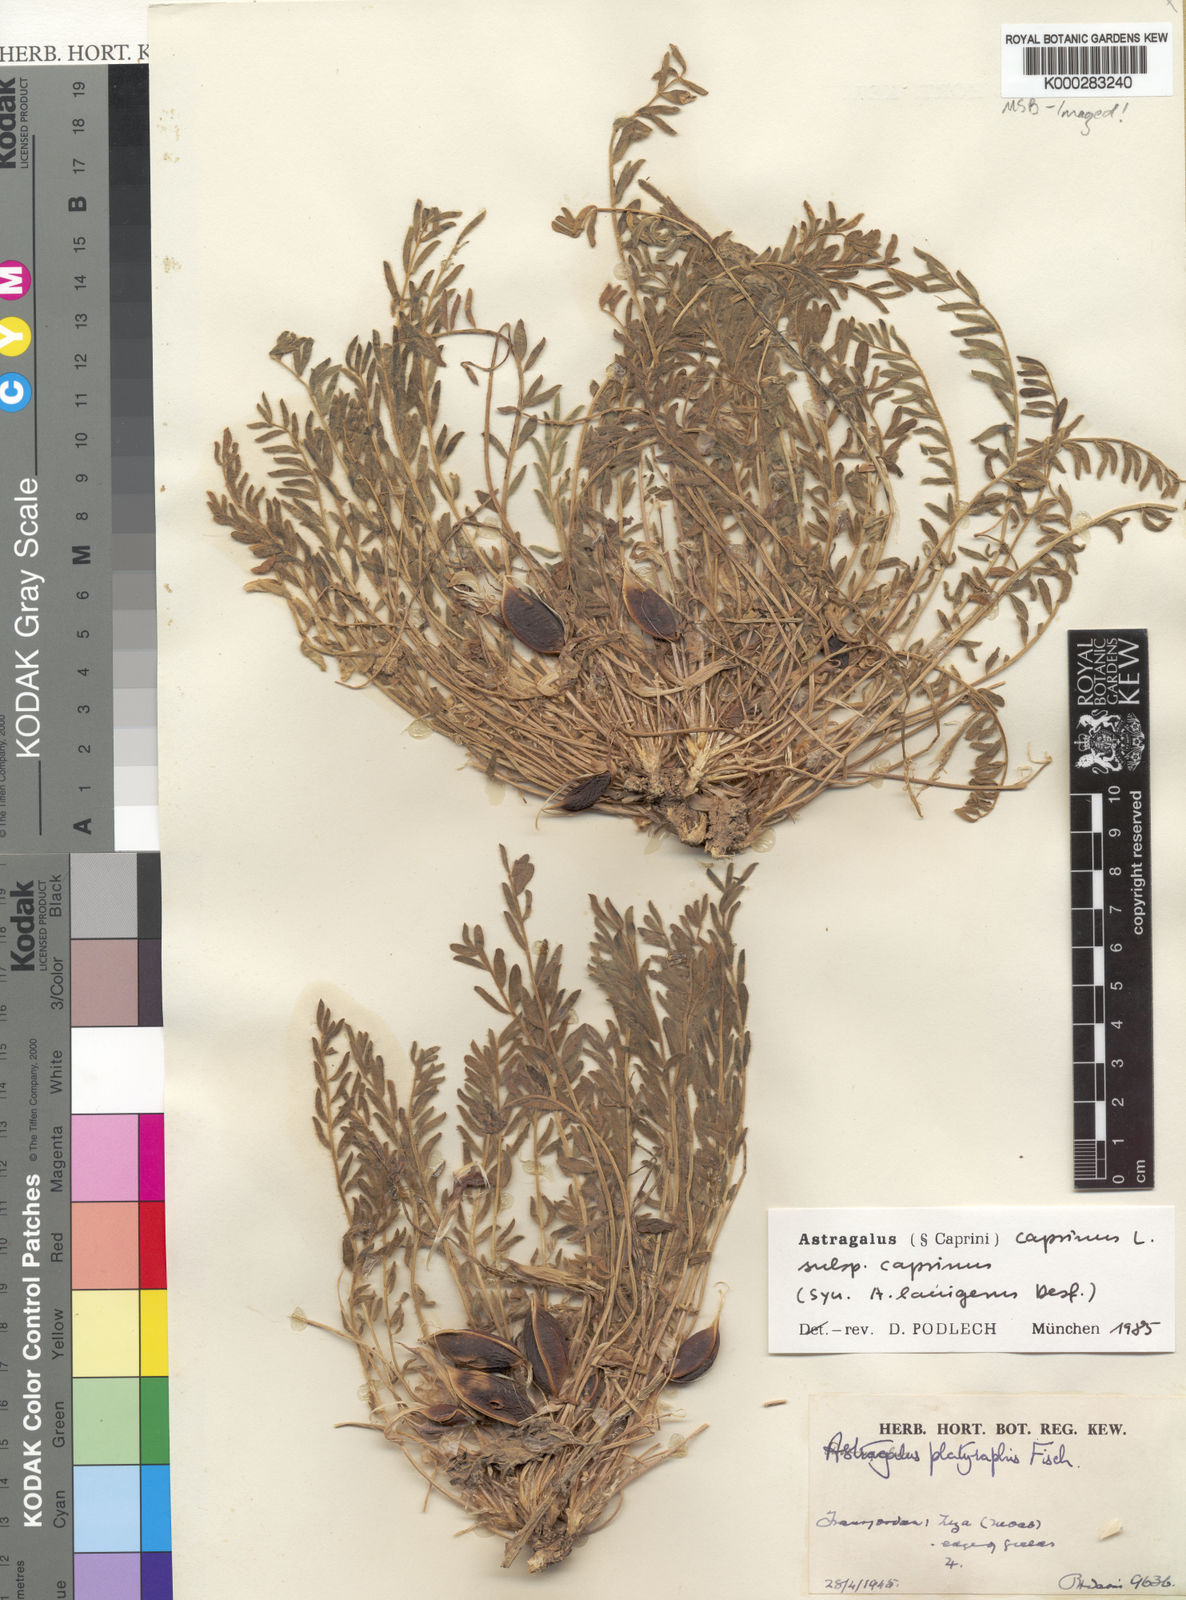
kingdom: Plantae
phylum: Tracheophyta
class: Magnoliopsida
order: Fabales
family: Fabaceae
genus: Astragalus
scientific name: Astragalus caprinus
